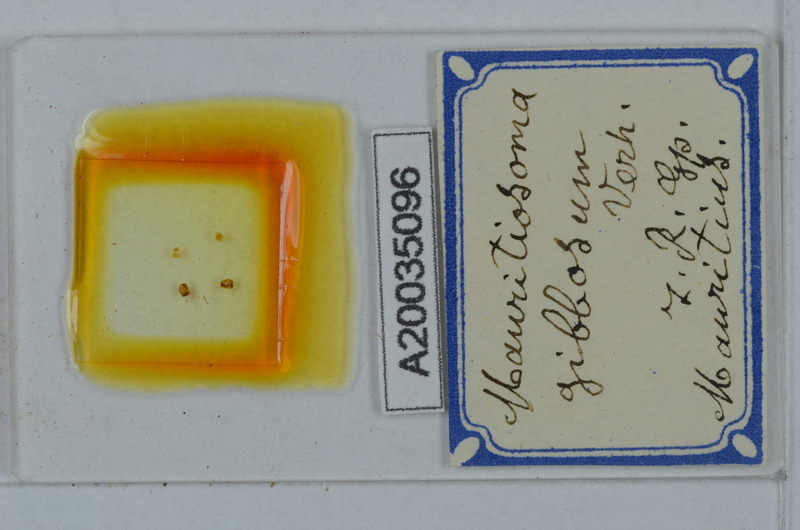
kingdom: Animalia
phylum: Arthropoda
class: Diplopoda
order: Polydesmida
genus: Mauritiosoma
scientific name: Mauritiosoma gibbosum
